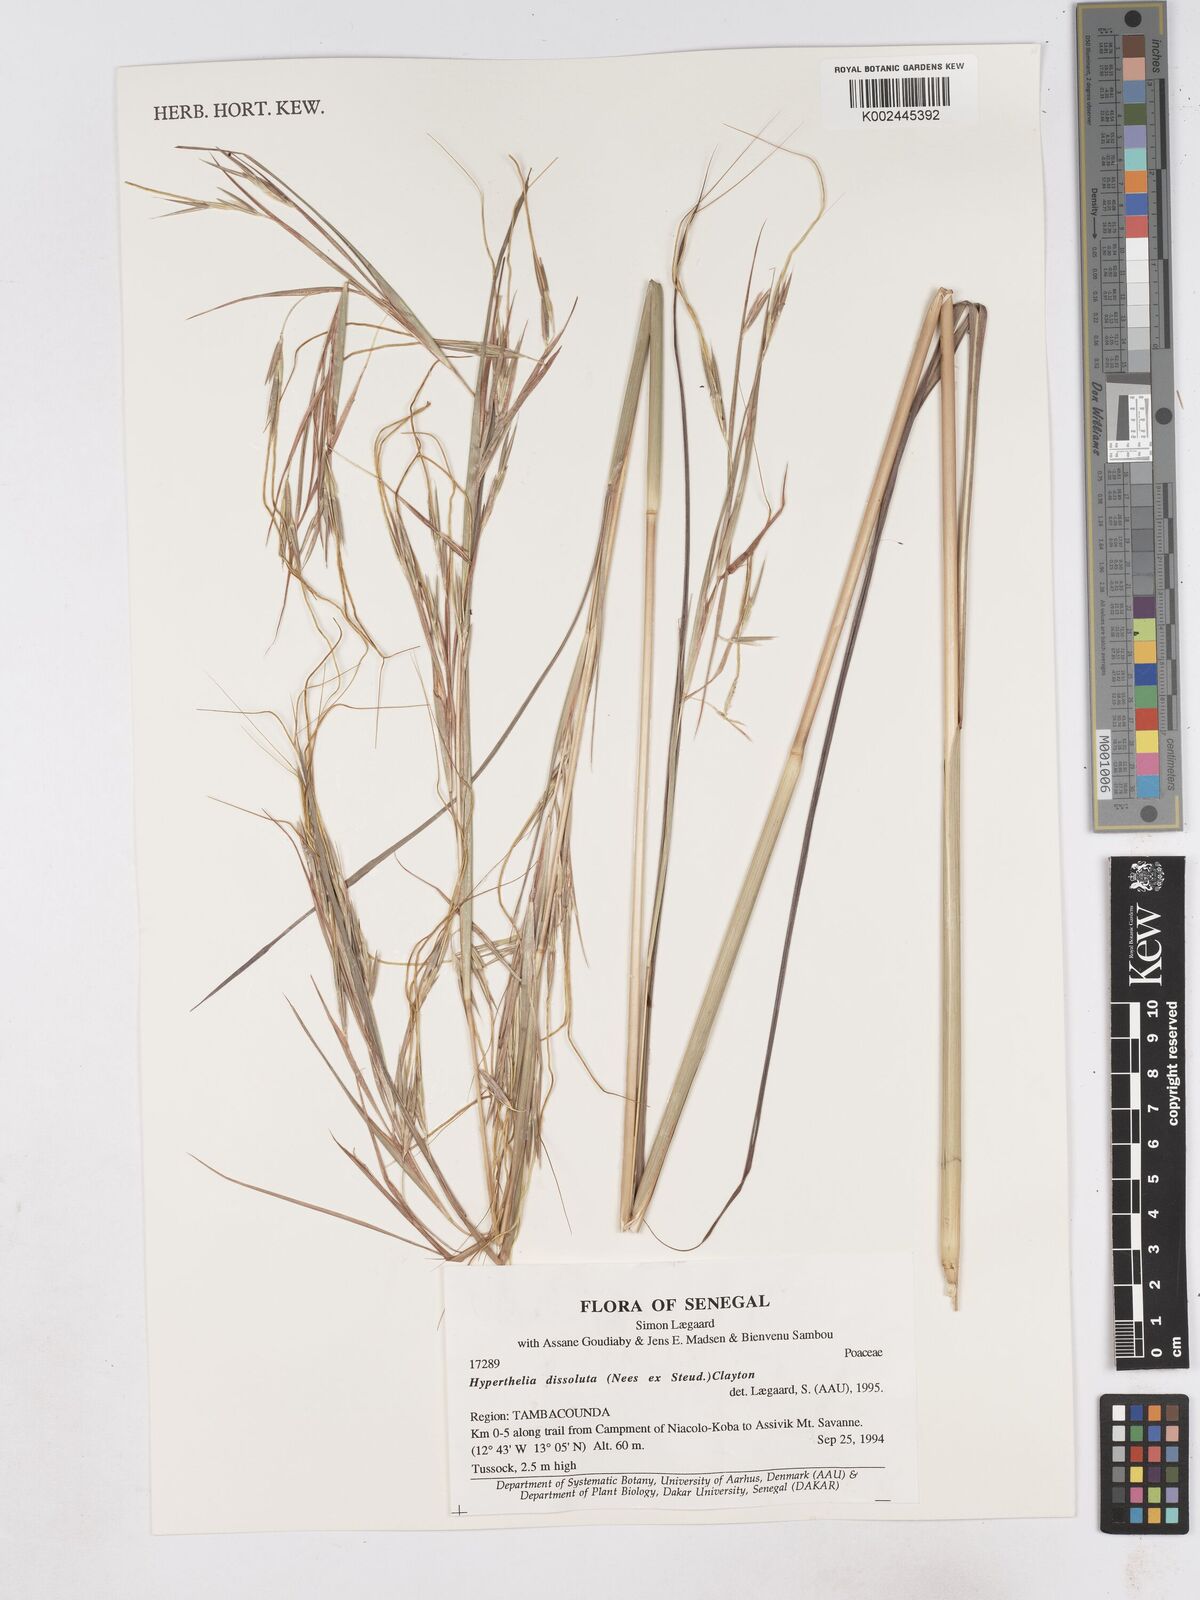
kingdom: Plantae
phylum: Tracheophyta
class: Liliopsida
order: Poales
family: Poaceae
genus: Hyperthelia
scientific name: Hyperthelia dissoluta
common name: Yellow thatching grass
